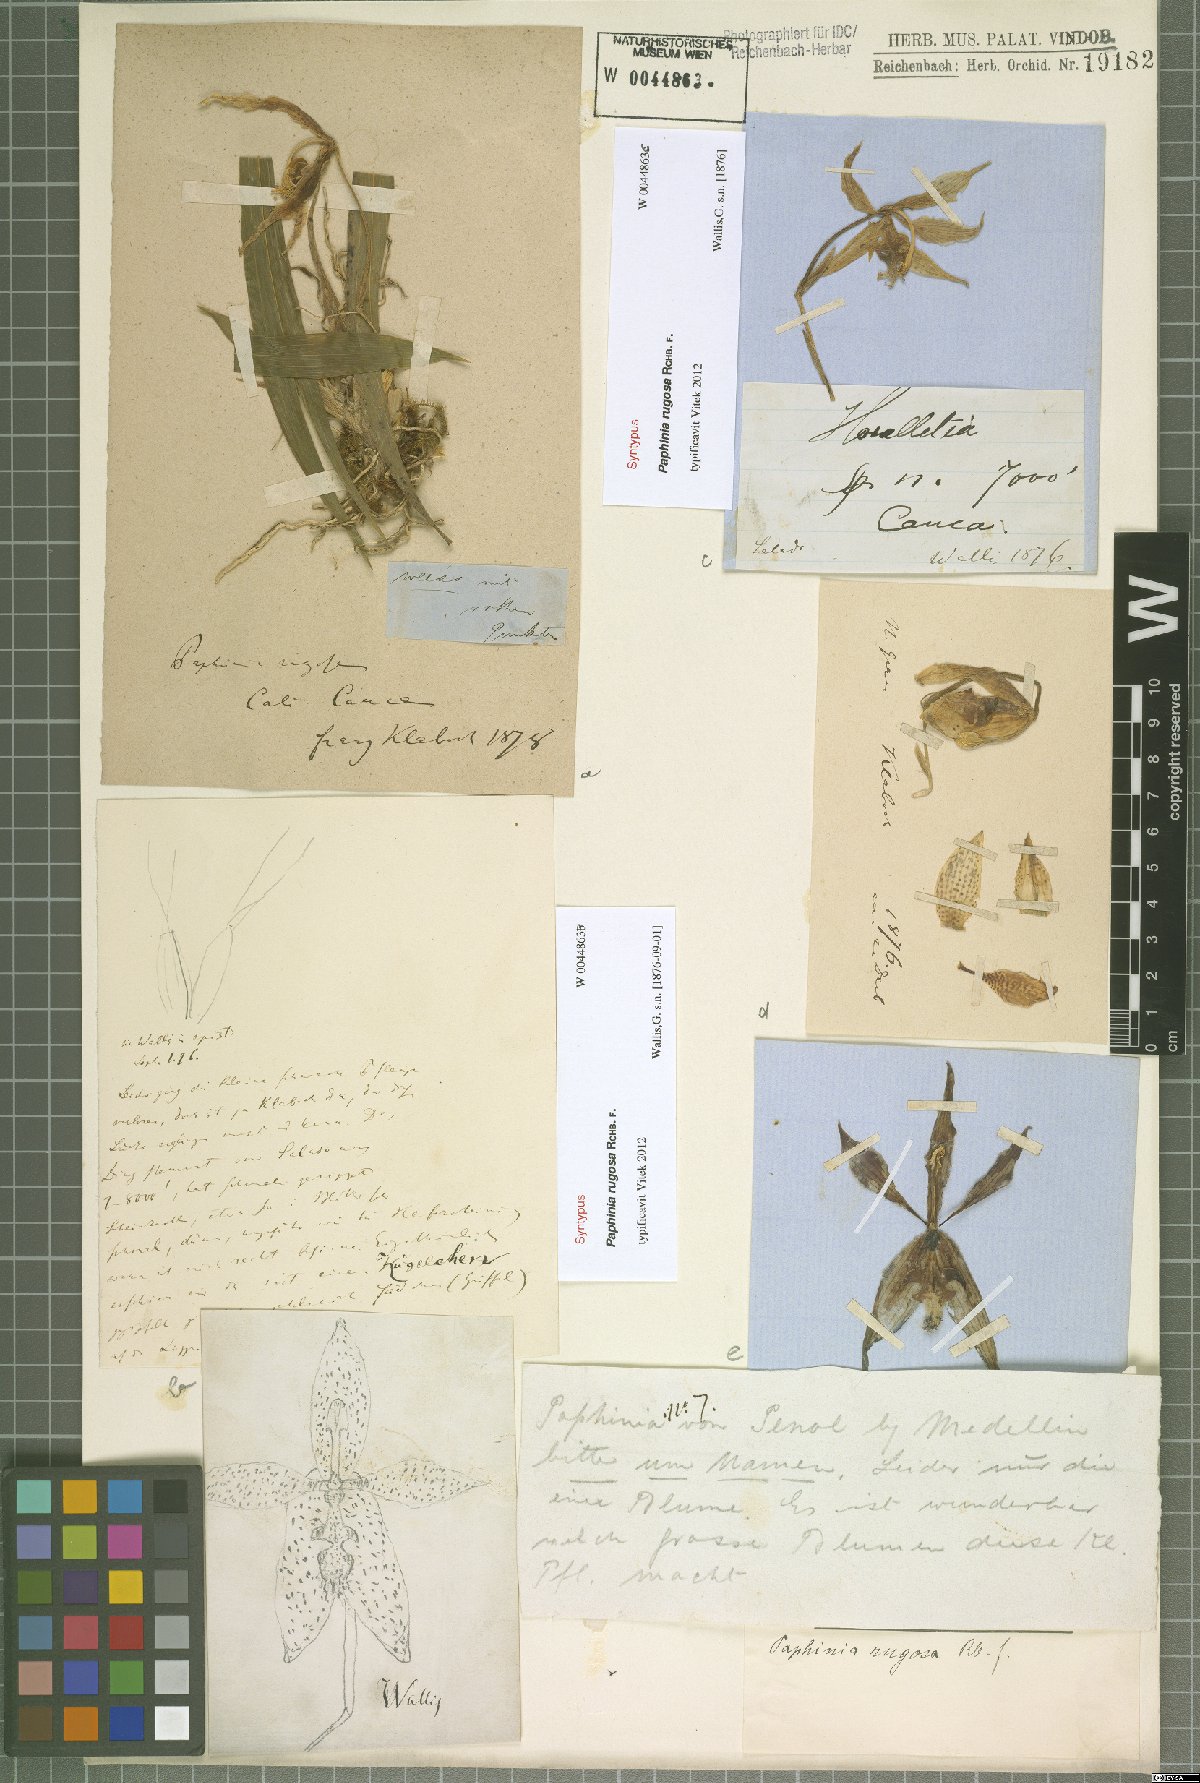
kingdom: Plantae
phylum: Tracheophyta
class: Liliopsida
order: Asparagales
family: Orchidaceae
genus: Paphinia
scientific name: Paphinia rugosa
